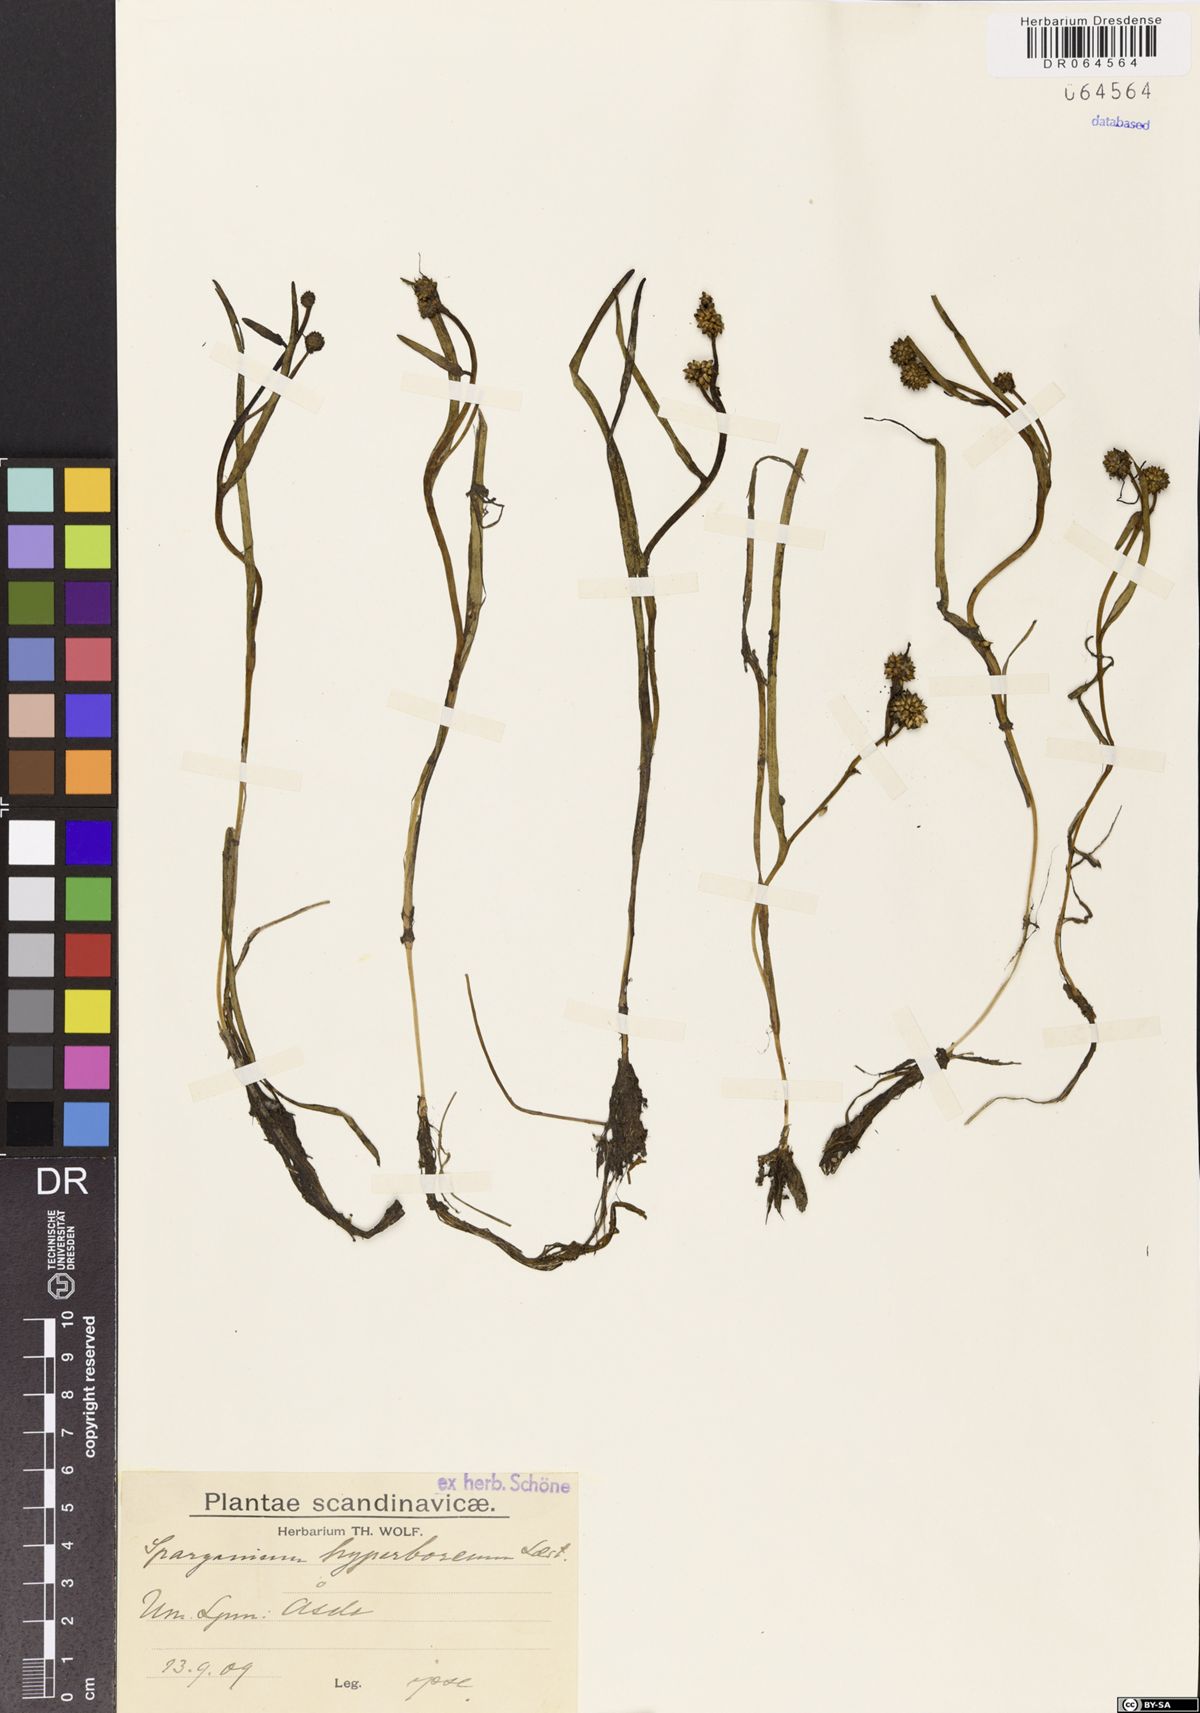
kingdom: Plantae
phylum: Tracheophyta
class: Liliopsida
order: Poales
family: Typhaceae
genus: Sparganium
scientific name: Sparganium hyperboreum
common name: Arctic burreed
